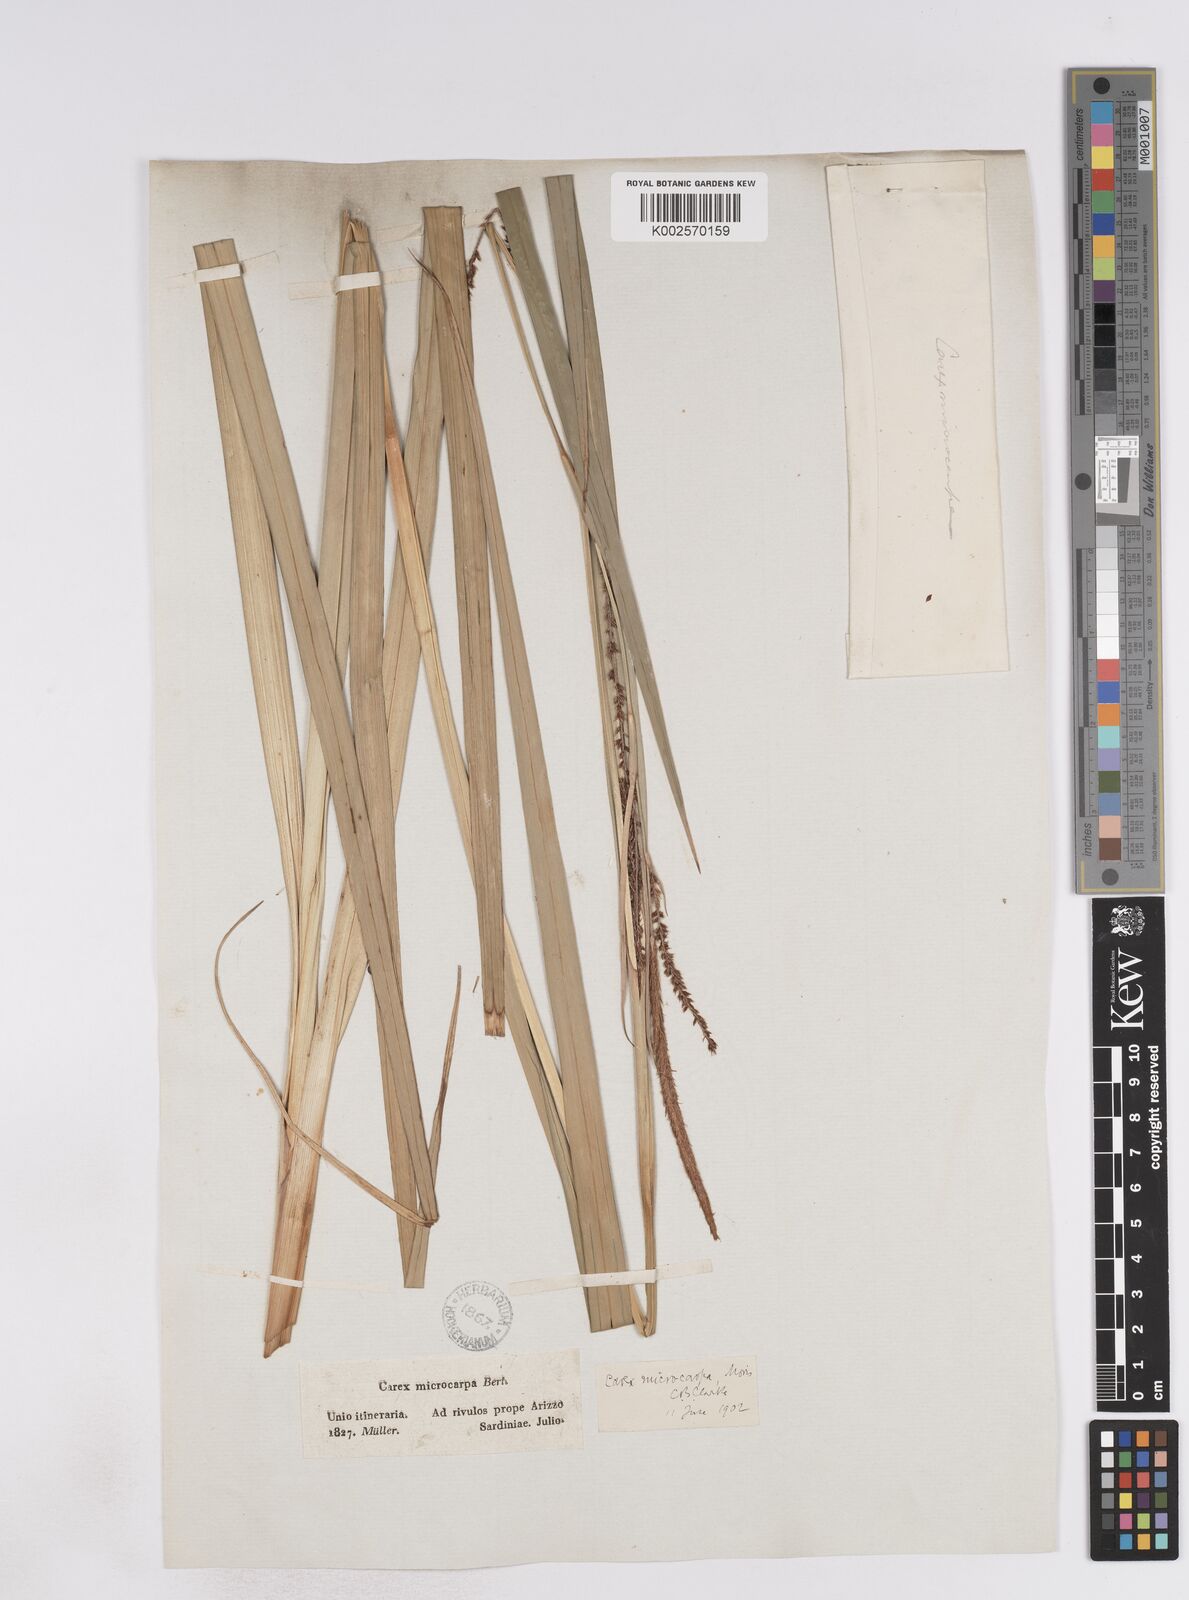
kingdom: Plantae
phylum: Tracheophyta
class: Liliopsida
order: Poales
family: Cyperaceae
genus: Carex
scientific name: Carex microcarpa
